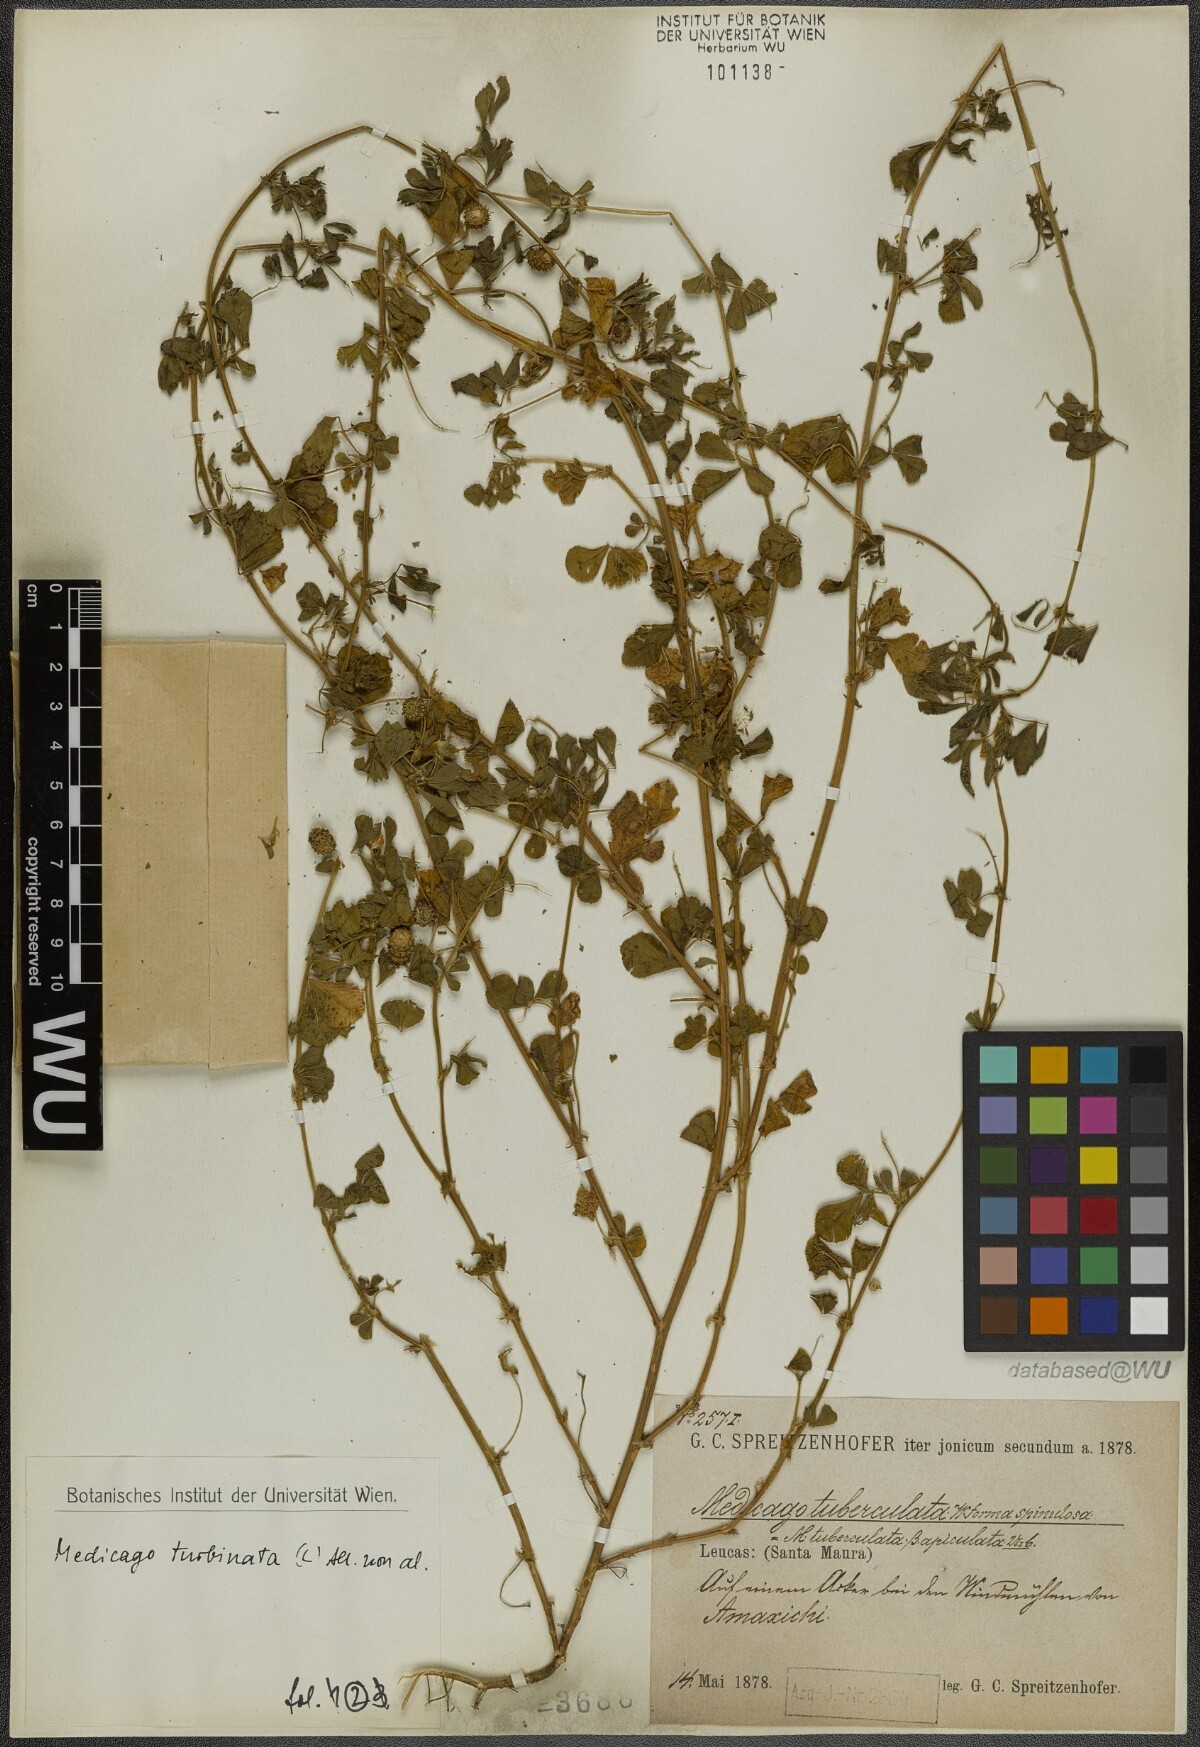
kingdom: Plantae
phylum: Tracheophyta
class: Magnoliopsida
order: Fabales
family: Fabaceae
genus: Medicago
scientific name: Medicago turbinata
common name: Southern medick
